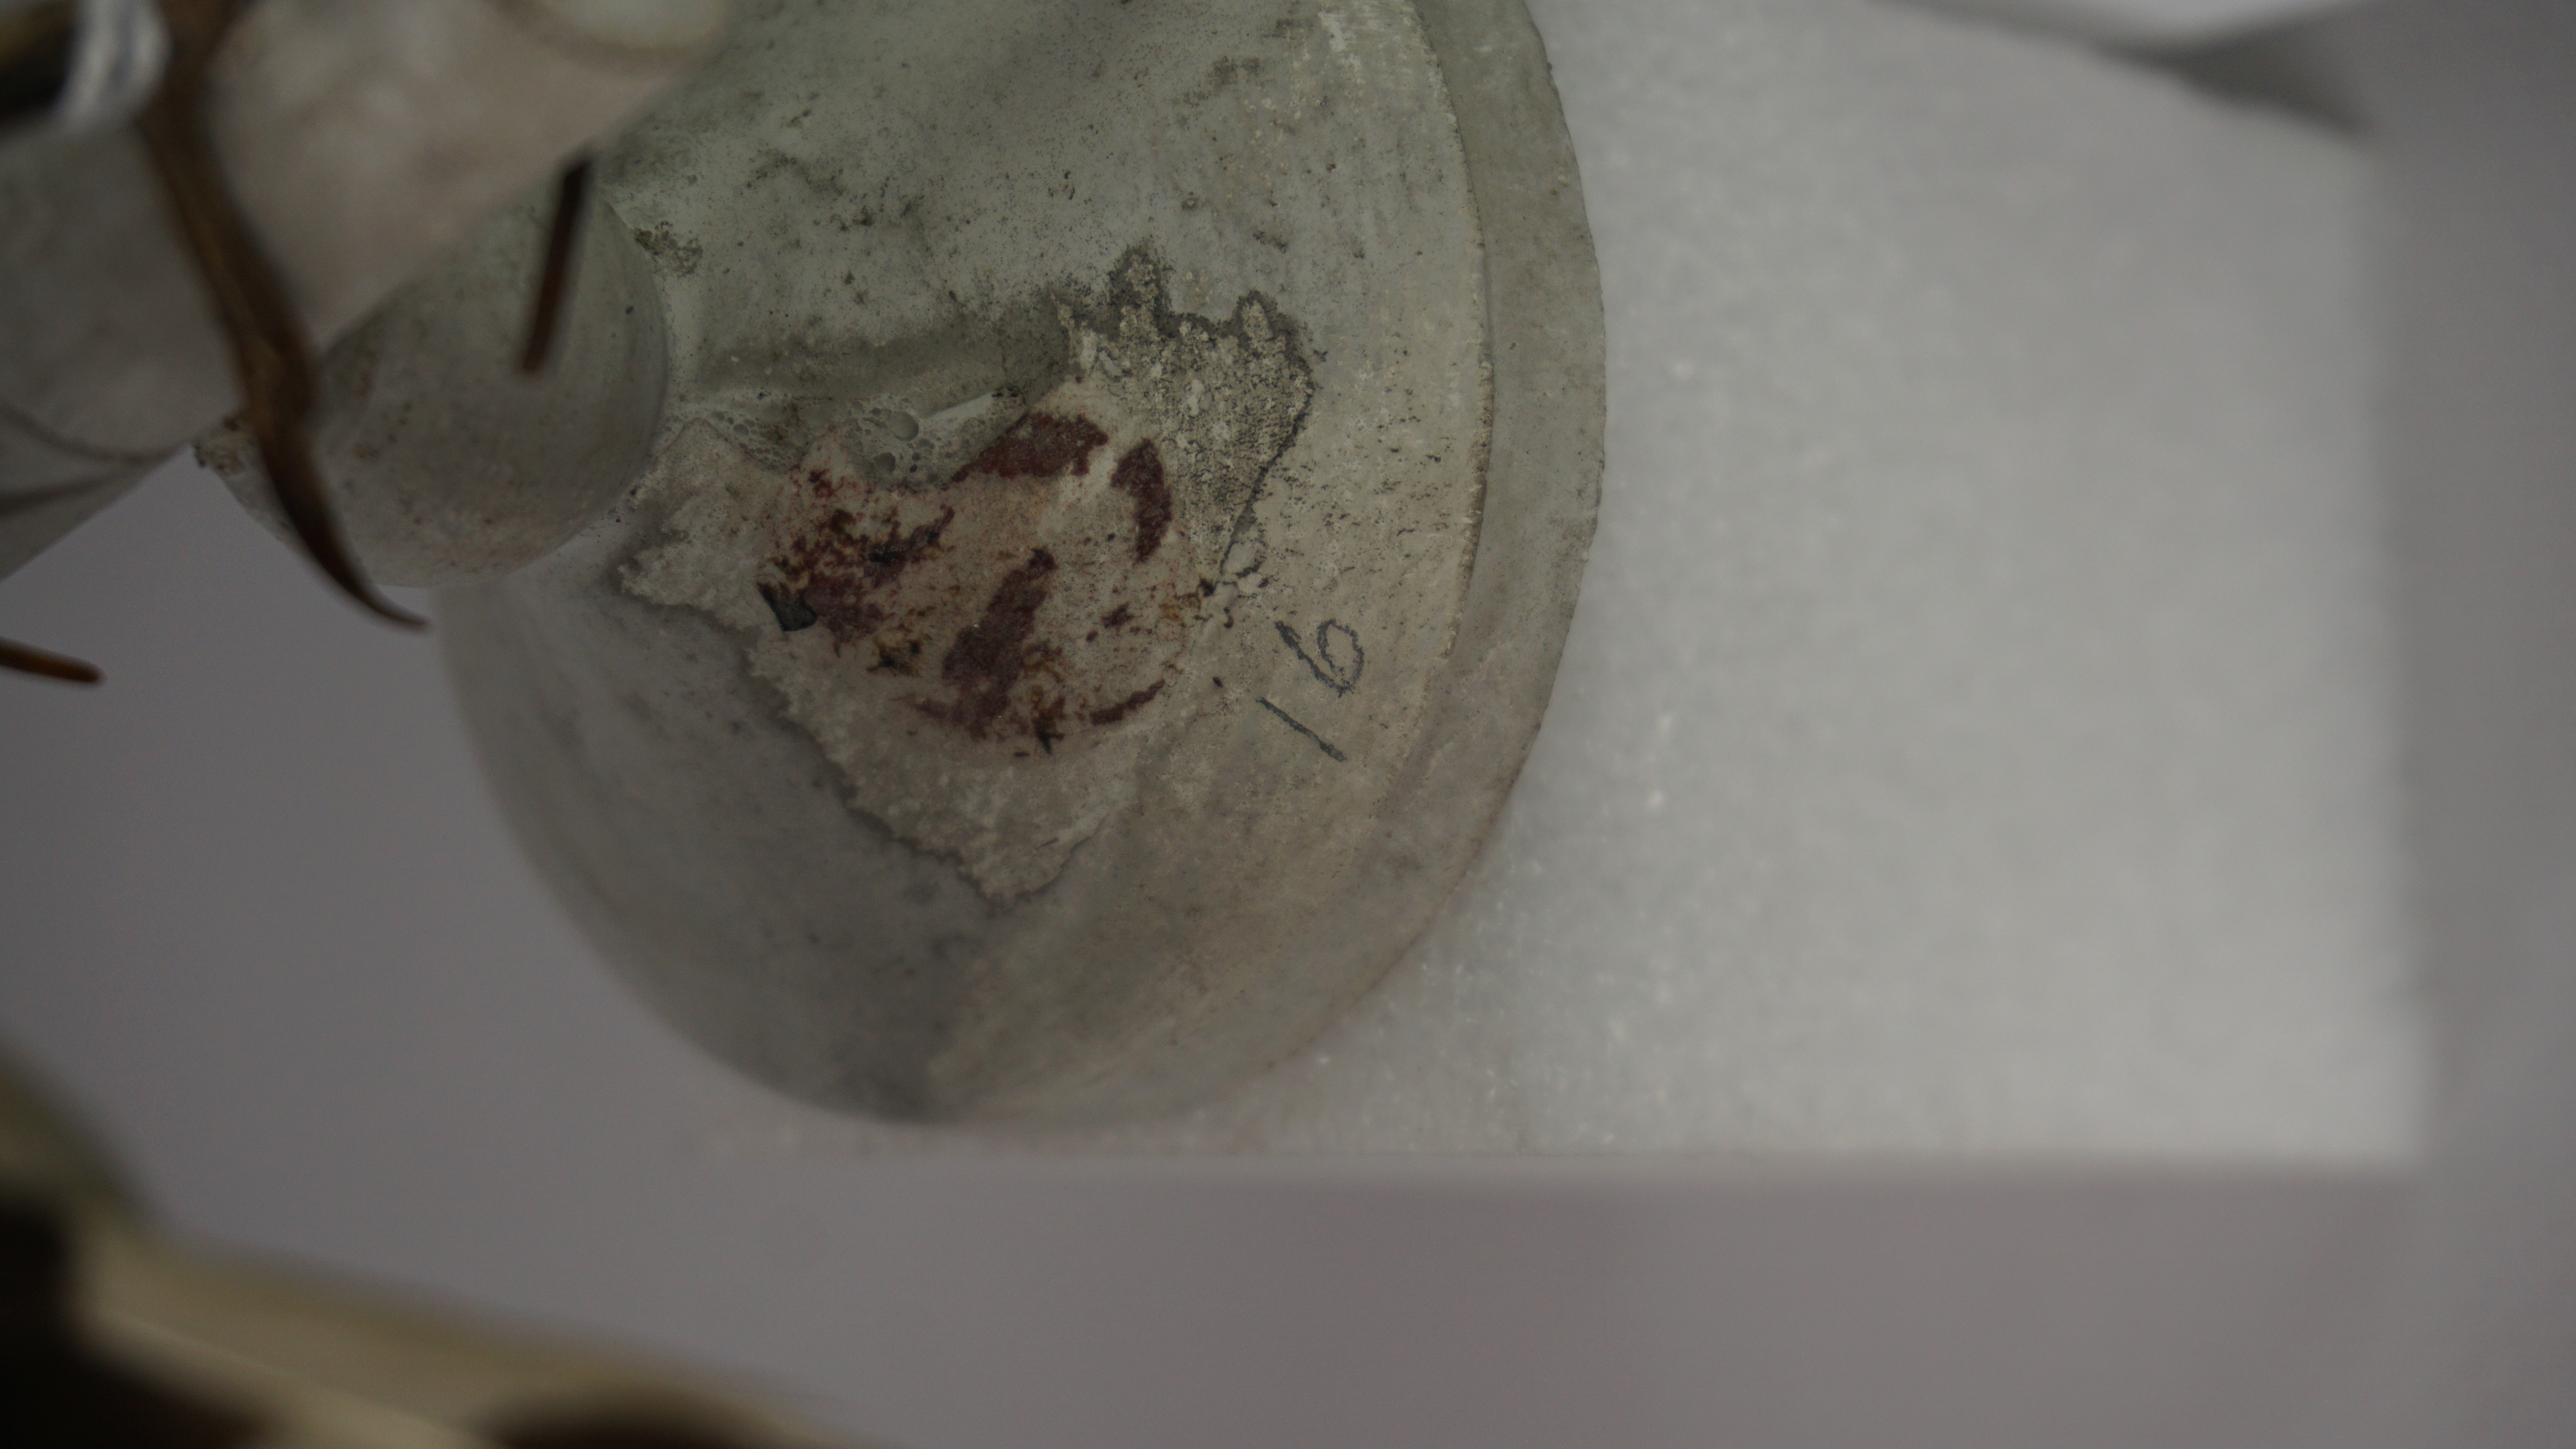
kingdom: Animalia
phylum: Chordata
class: Aves
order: Bucerotiformes
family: Upupidae
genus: Upupa
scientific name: Upupa epops
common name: Eurasian hoopoe
